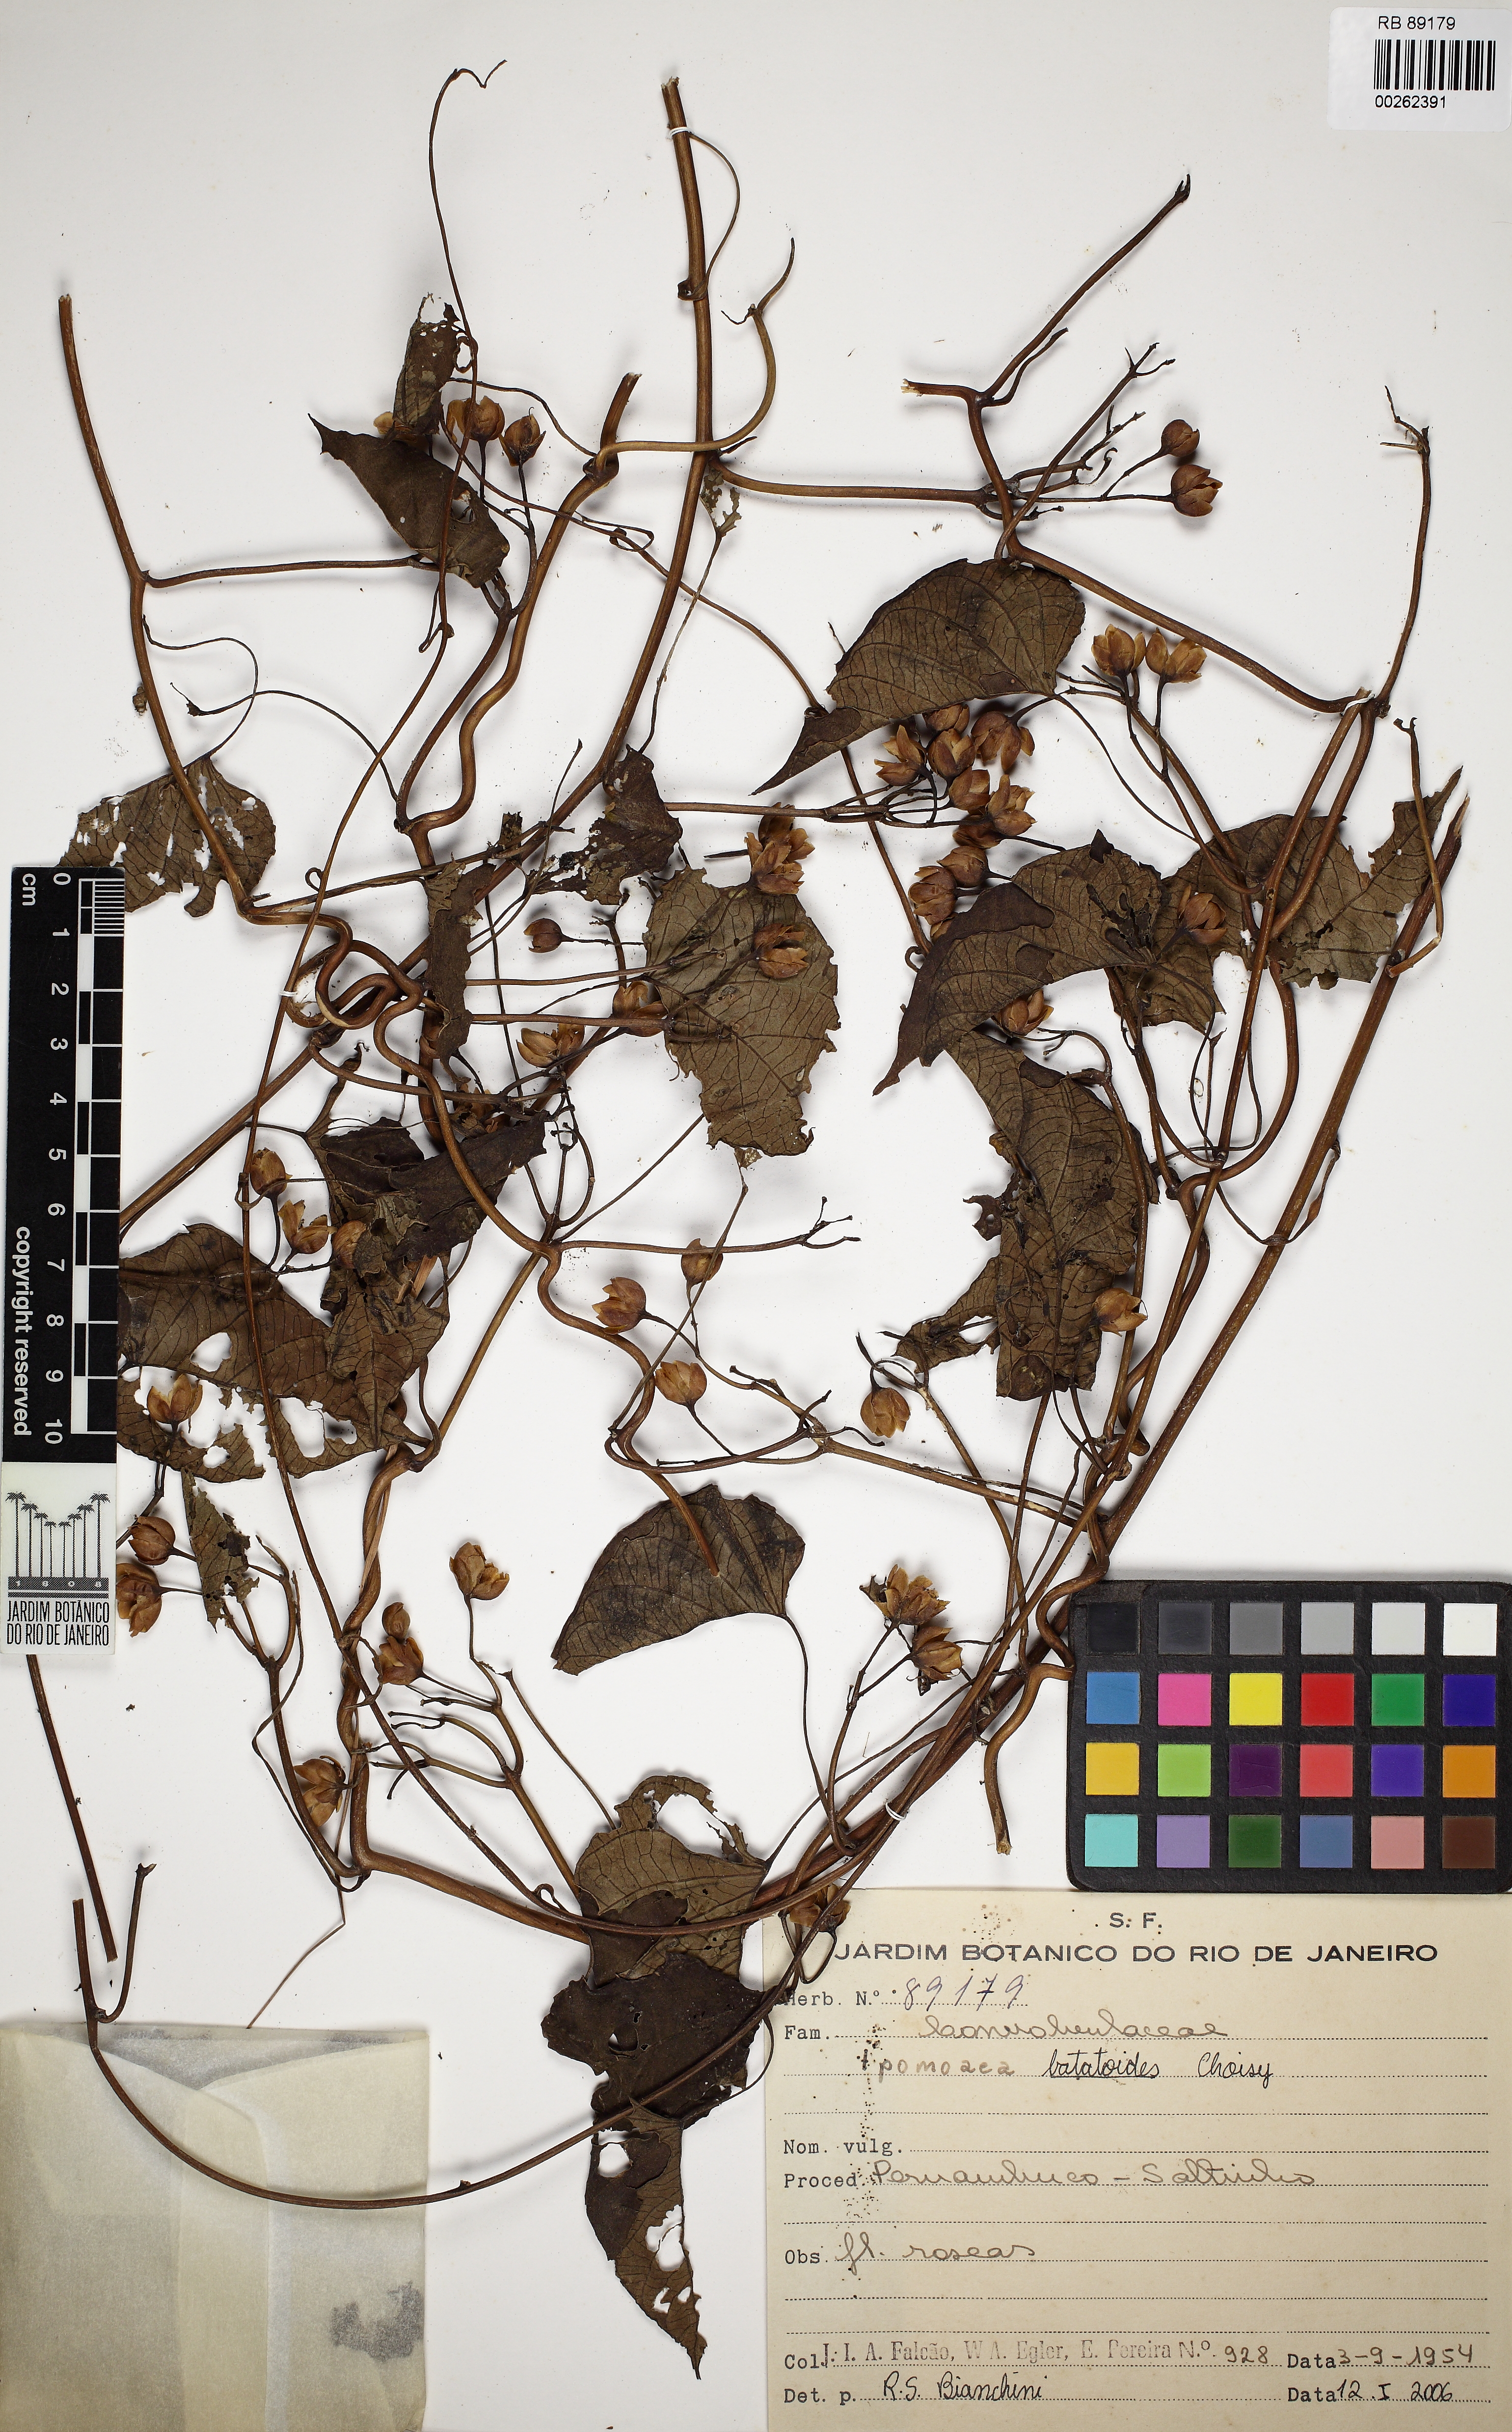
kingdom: Plantae
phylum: Tracheophyta
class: Magnoliopsida
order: Solanales
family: Convolvulaceae
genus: Ipomoea
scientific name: Ipomoea batatoides
